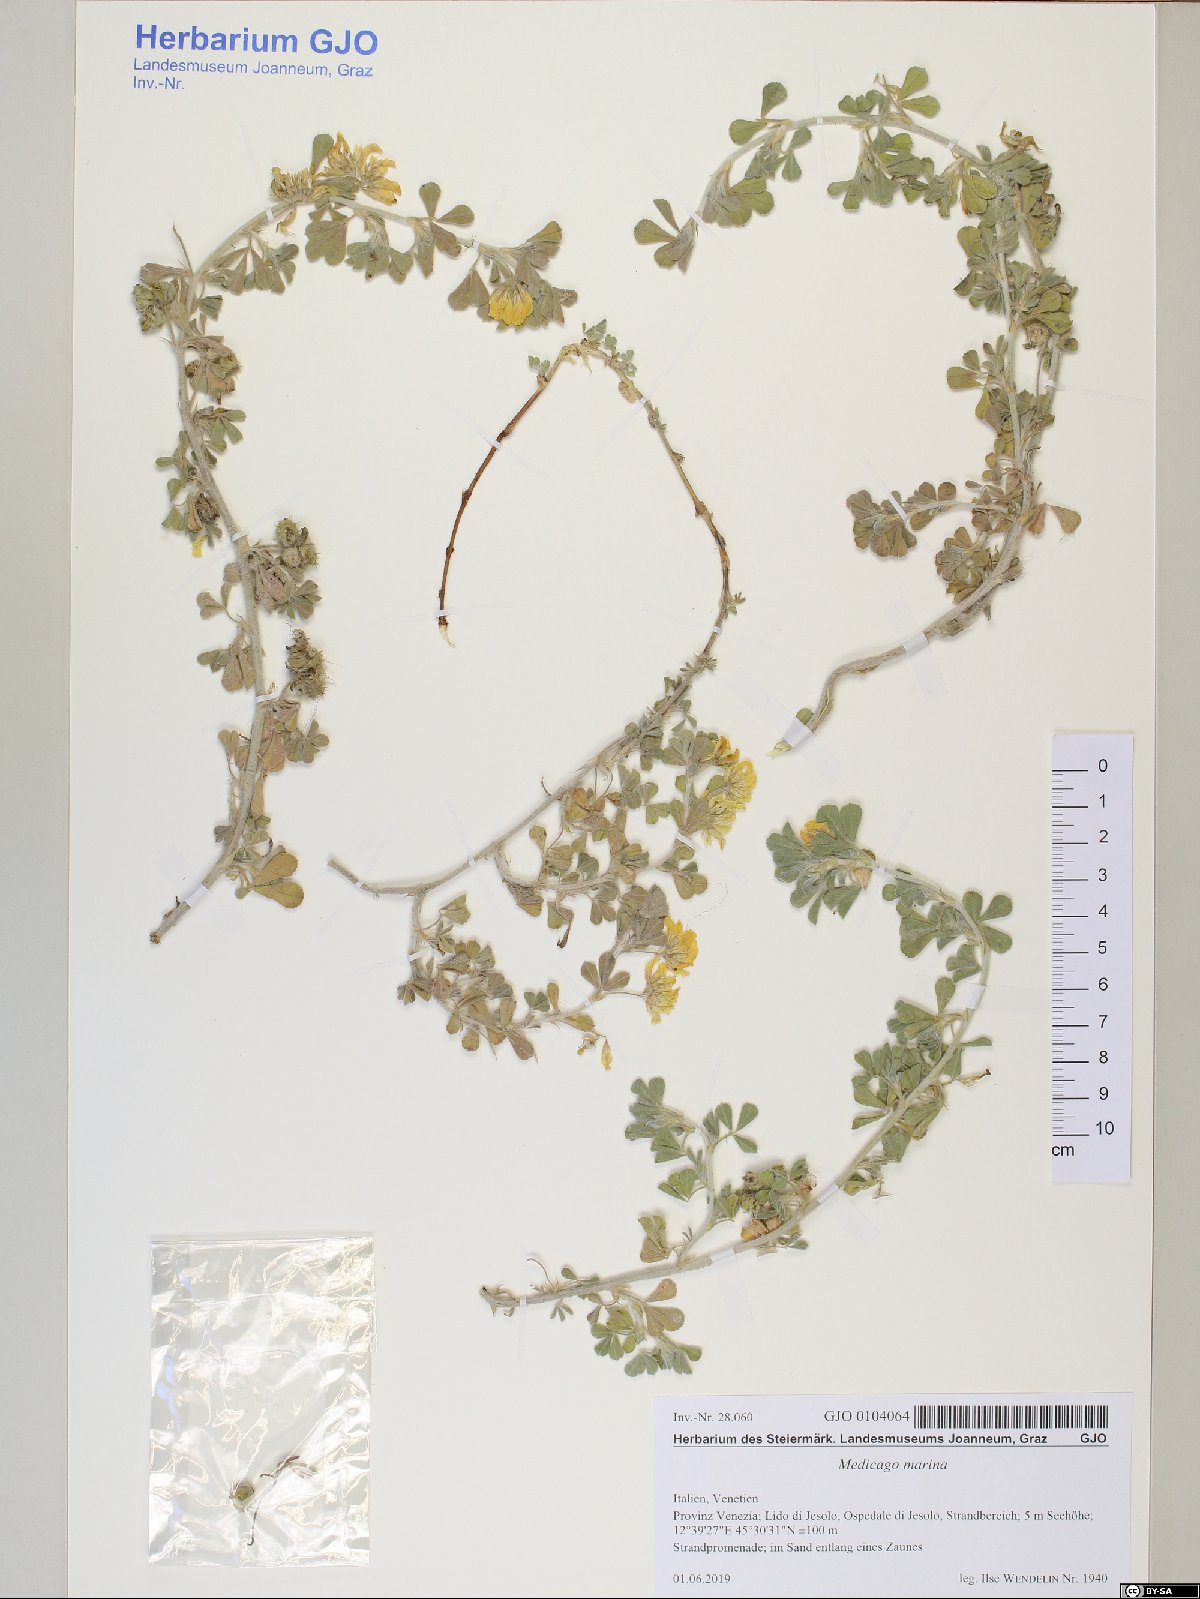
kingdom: Plantae
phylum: Tracheophyta
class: Magnoliopsida
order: Fabales
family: Fabaceae
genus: Medicago
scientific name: Medicago marina
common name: Sea medick
